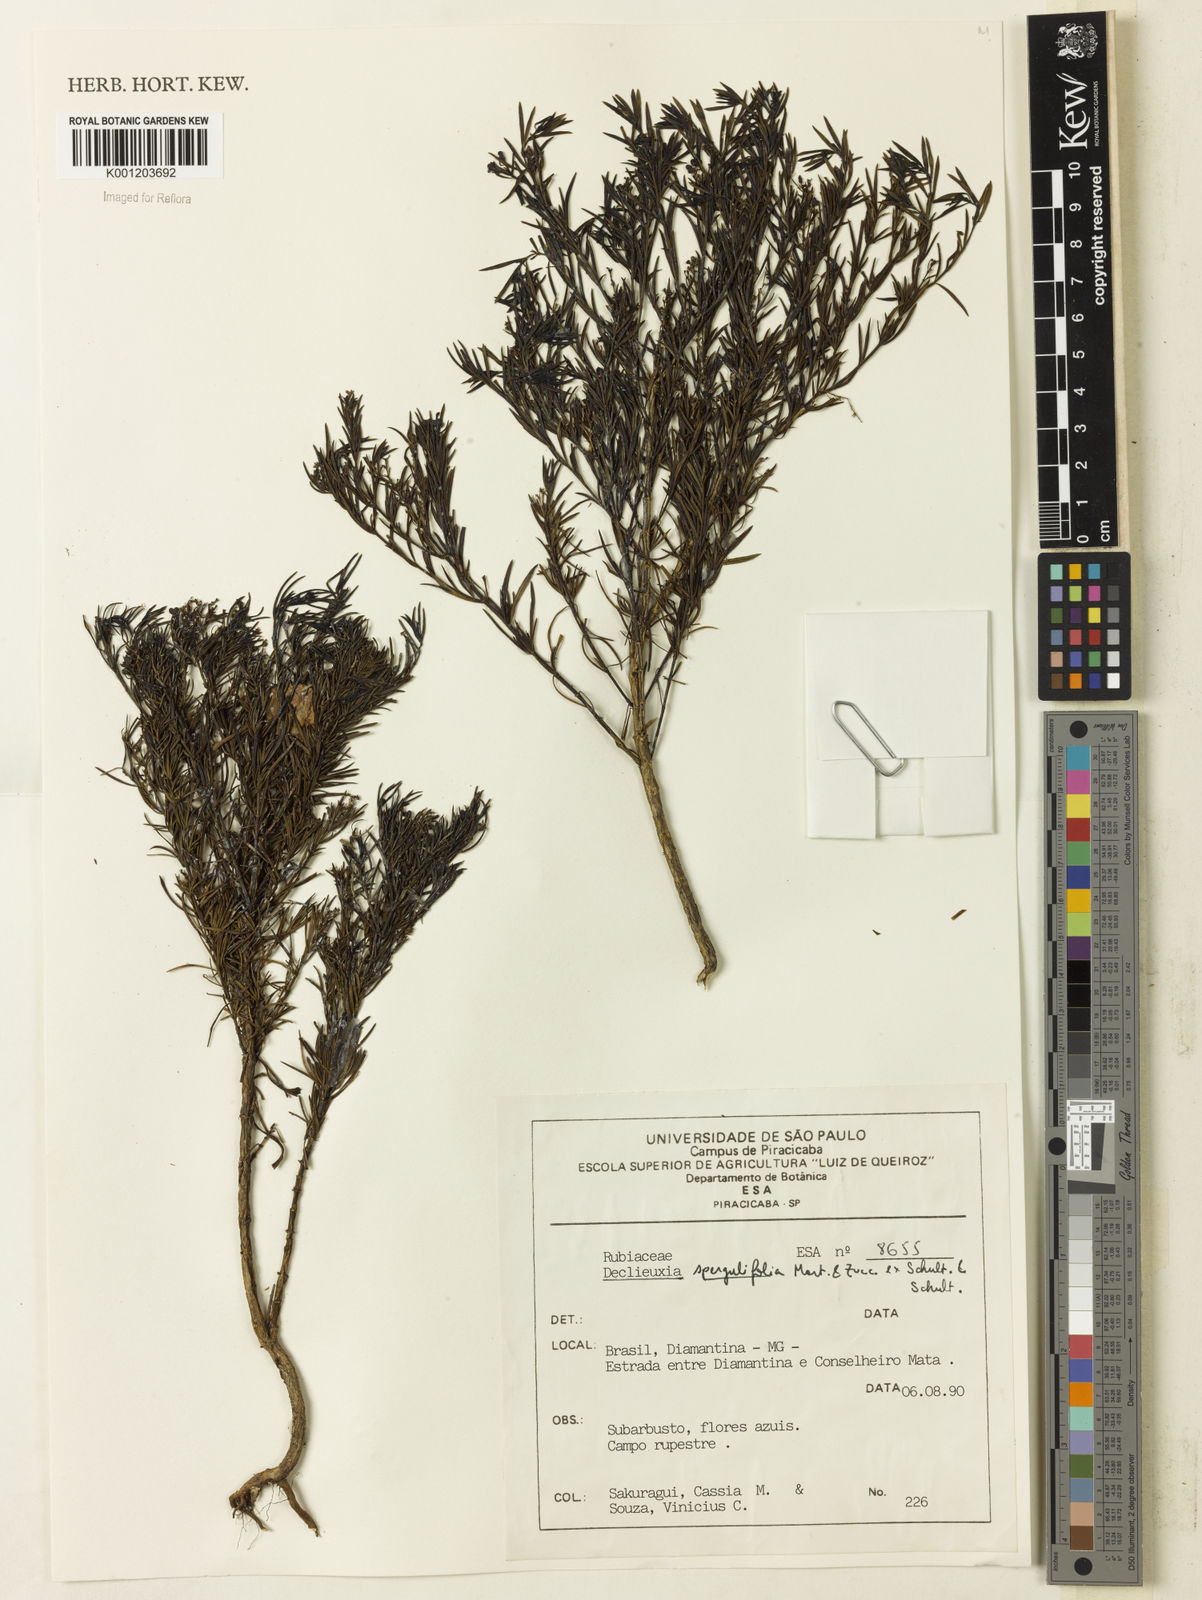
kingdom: Plantae
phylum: Tracheophyta
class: Magnoliopsida
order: Gentianales
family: Rubiaceae
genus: Declieuxia
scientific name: Declieuxia
